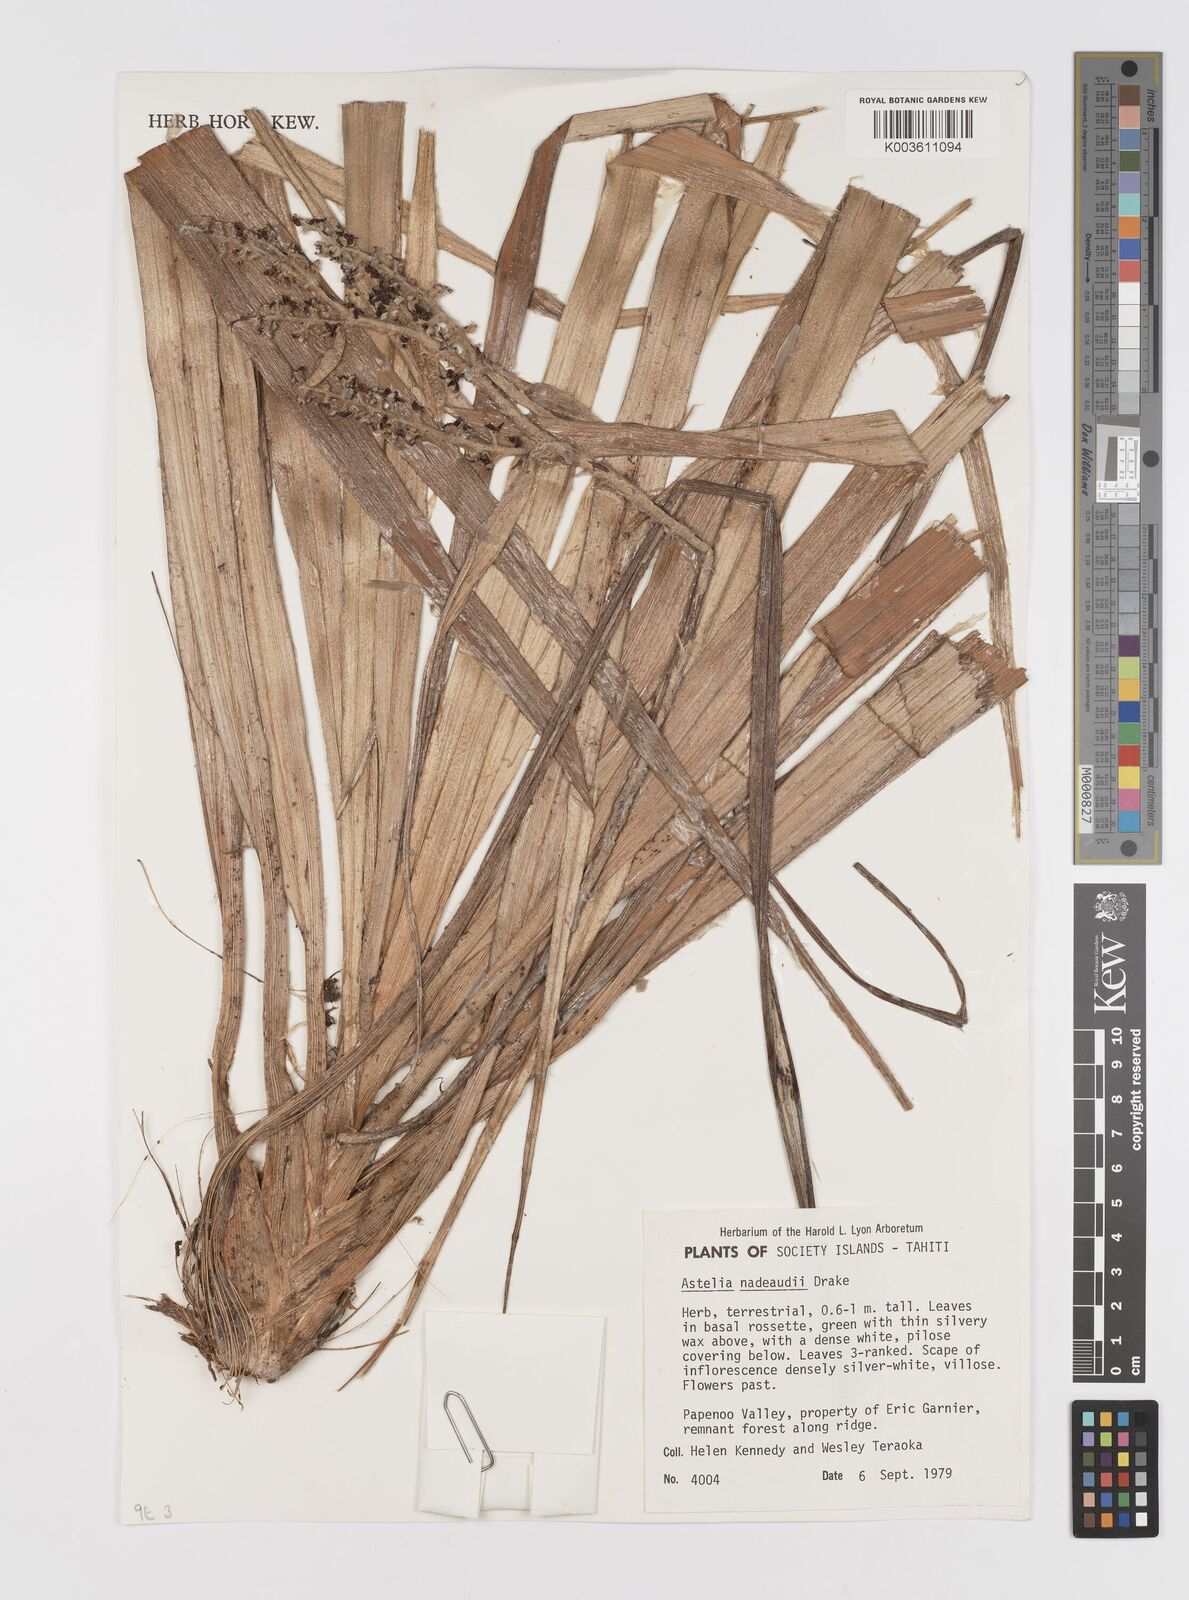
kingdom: Plantae
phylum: Tracheophyta
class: Liliopsida
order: Asparagales
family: Asteliaceae
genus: Astelia
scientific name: Astelia nadeaudii
